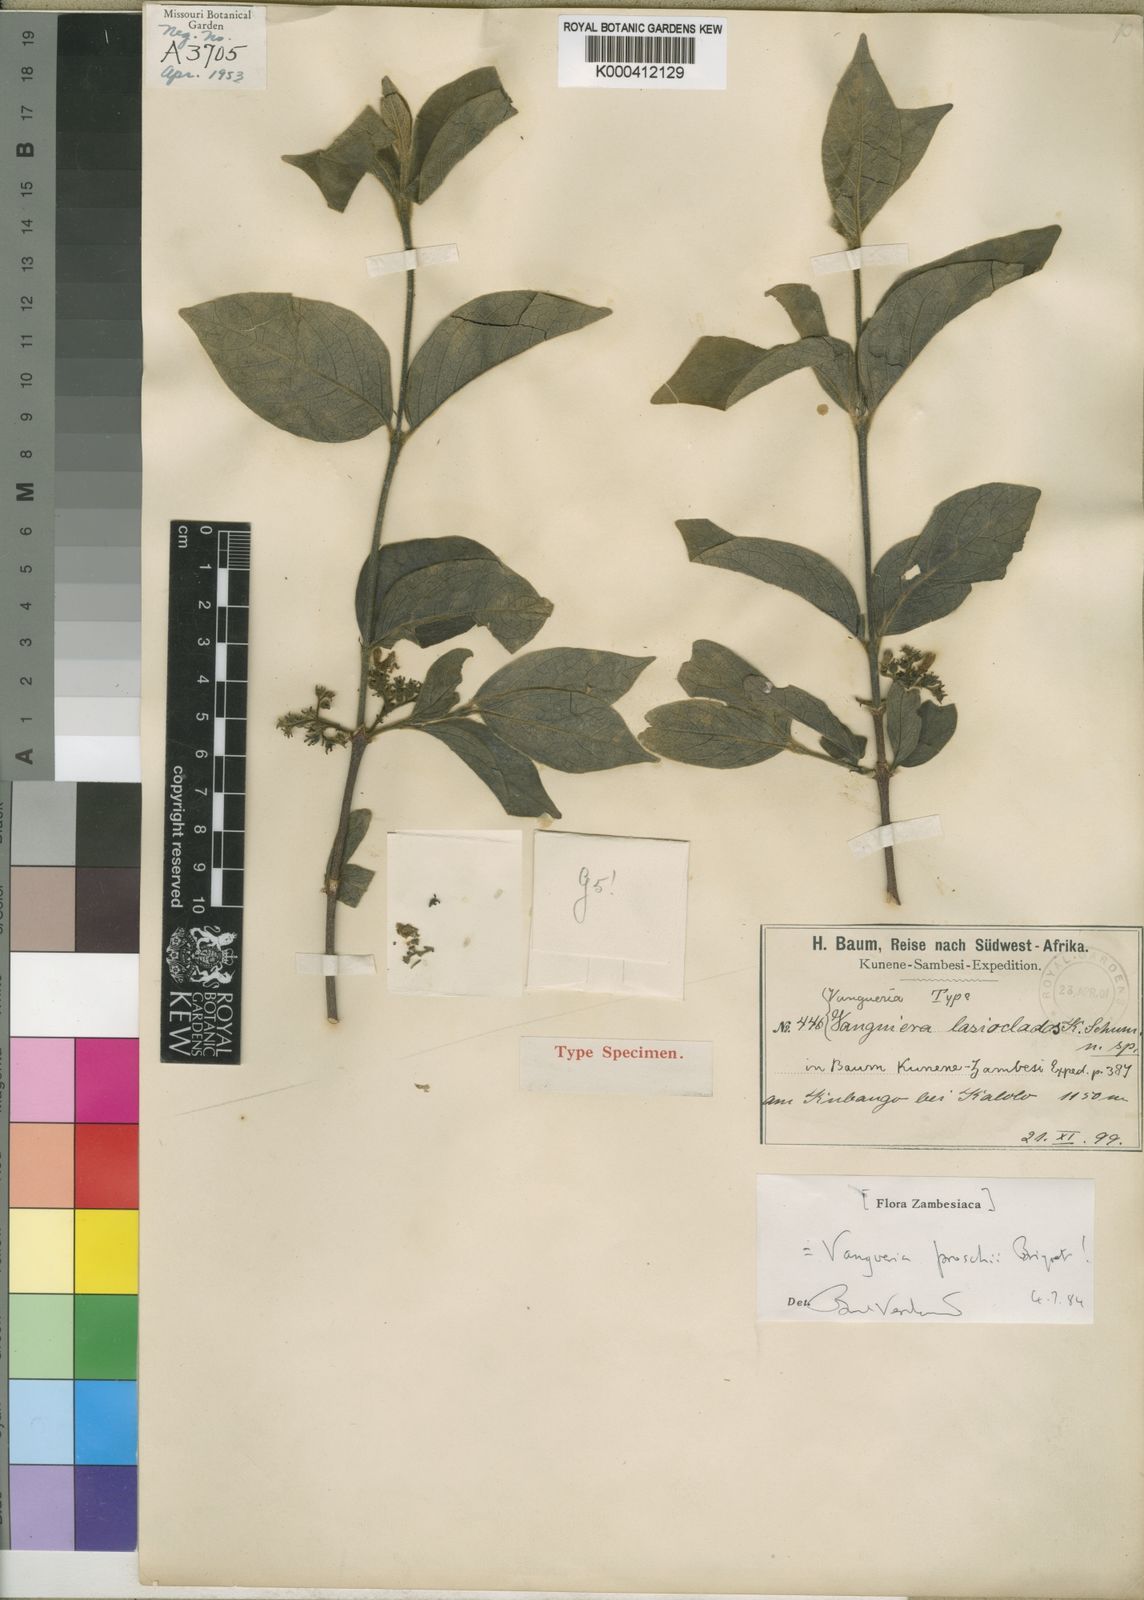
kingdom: Plantae
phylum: Tracheophyta
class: Magnoliopsida
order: Gentianales
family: Rubiaceae
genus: Vangueria
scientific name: Vangueria proschii
